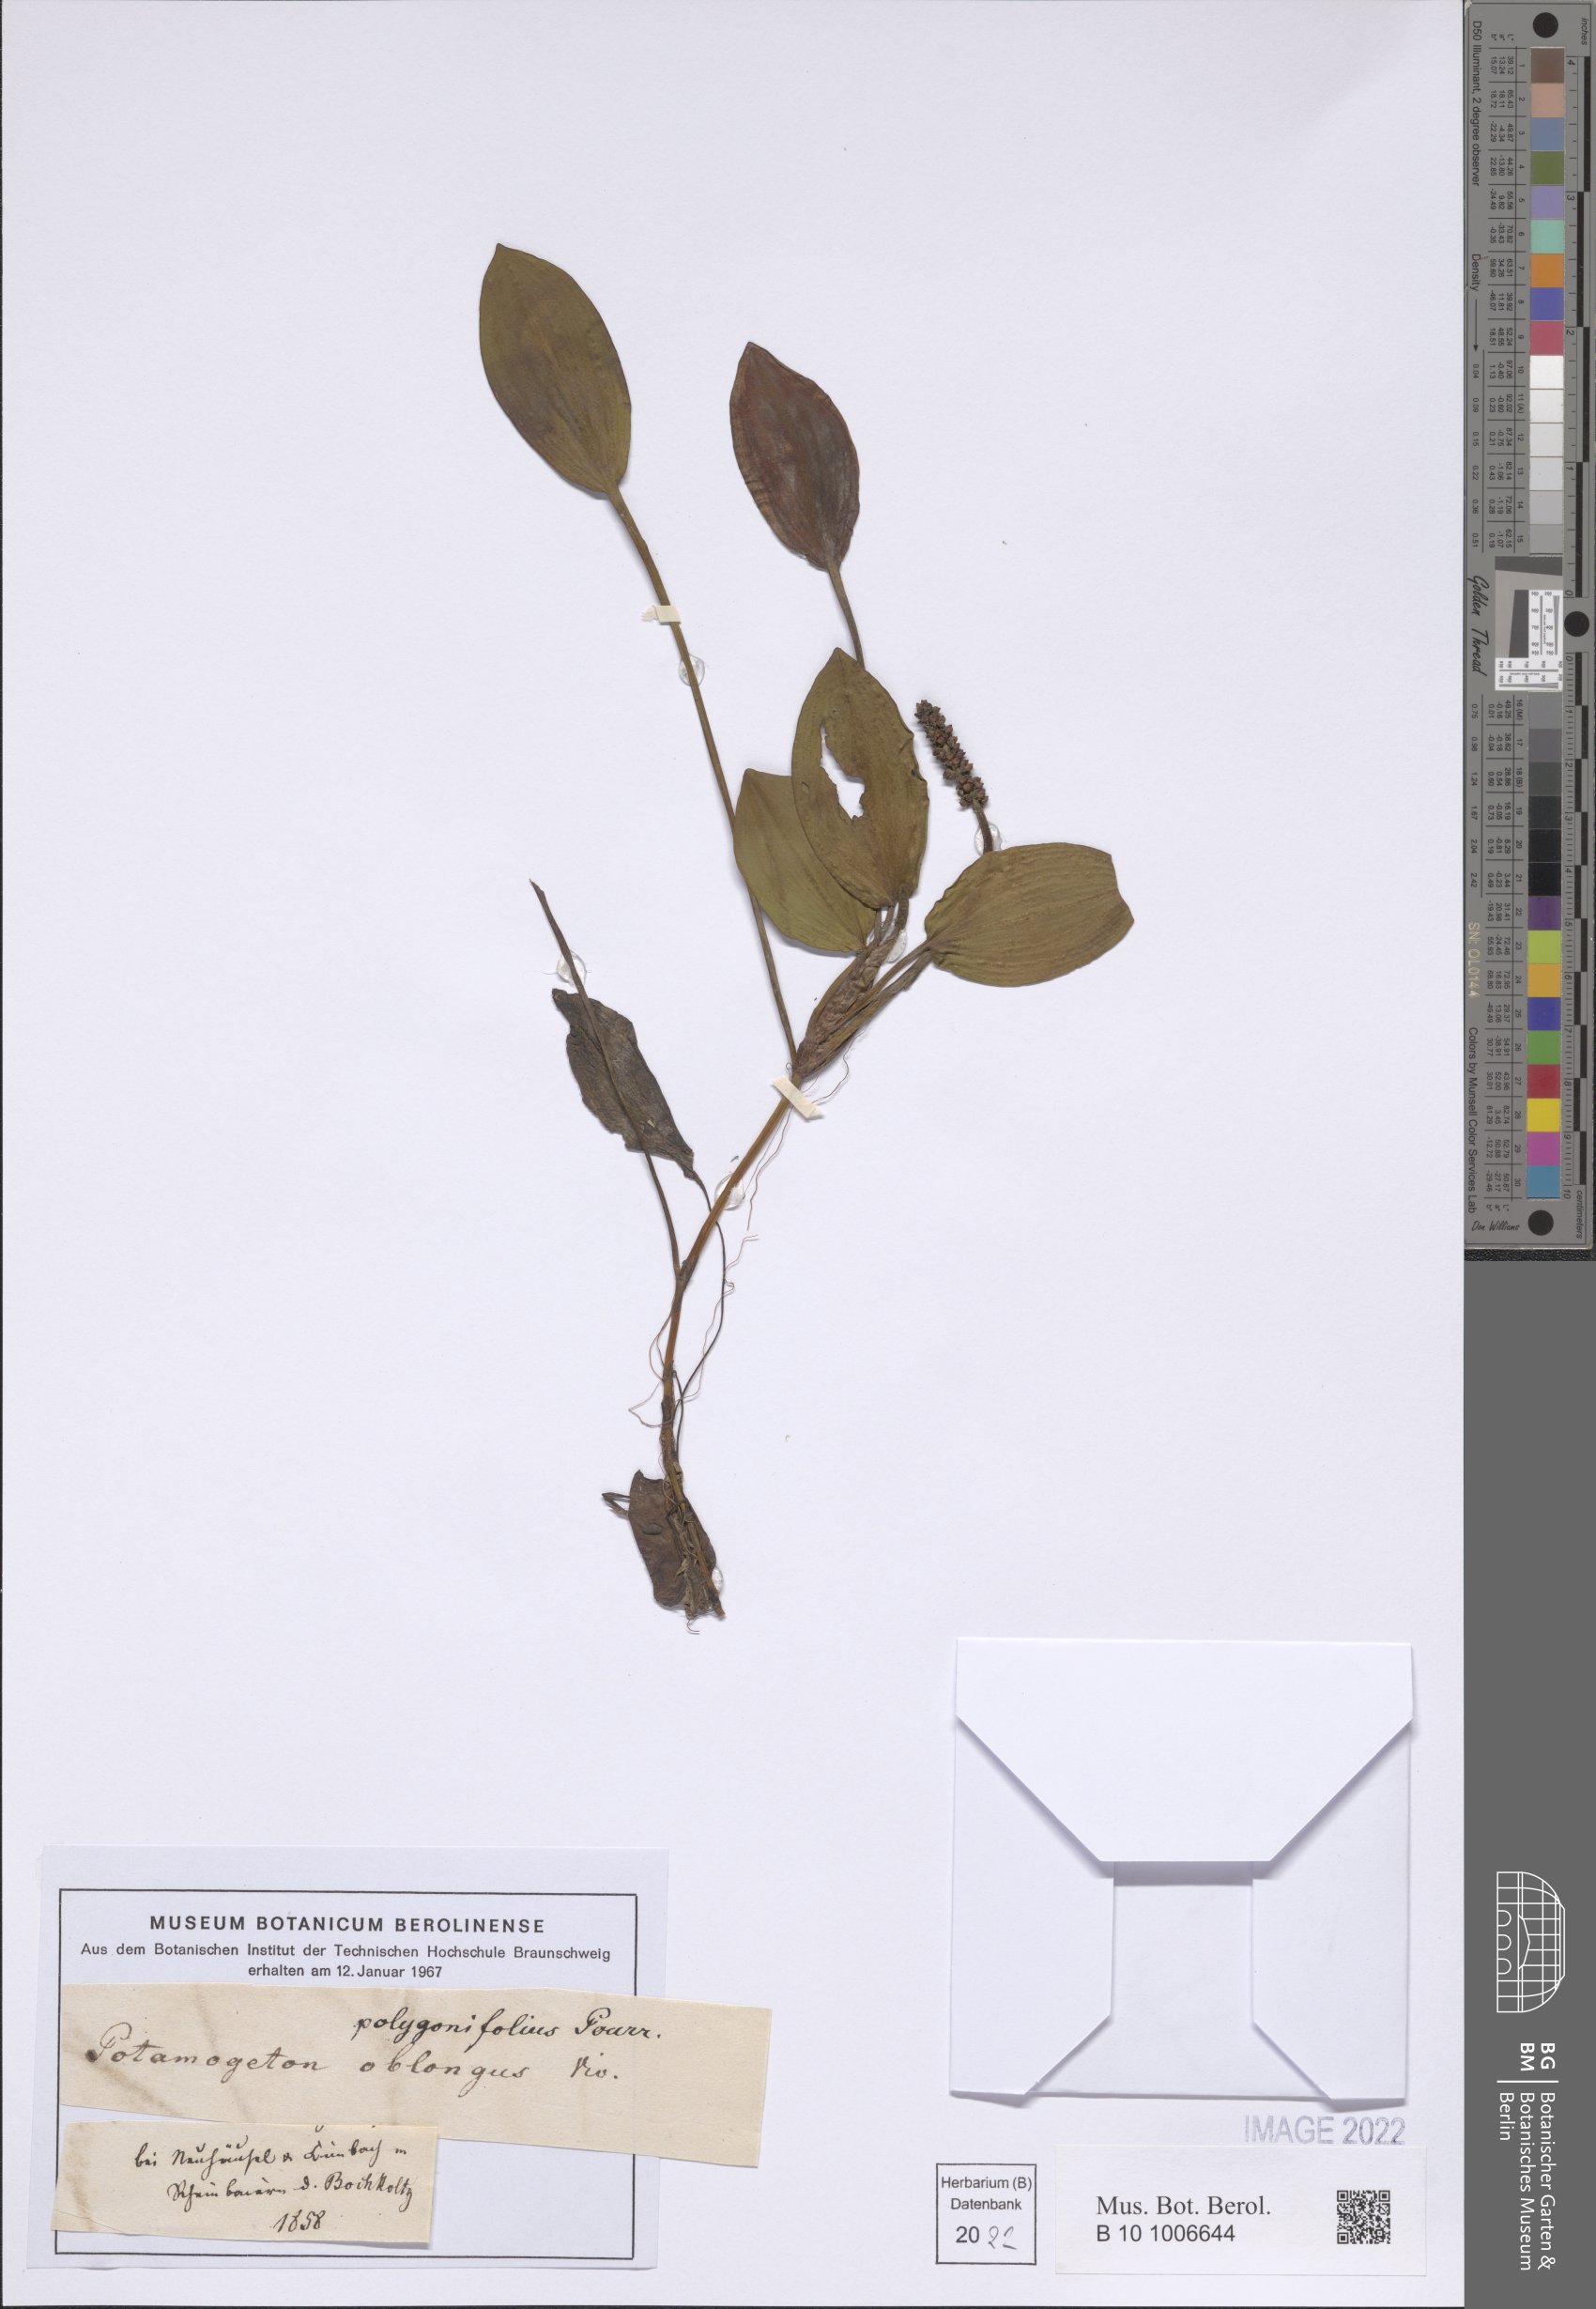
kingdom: Plantae
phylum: Tracheophyta
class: Liliopsida
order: Alismatales
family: Potamogetonaceae
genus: Potamogeton
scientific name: Potamogeton polygonifolius
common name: Bog pondweed
